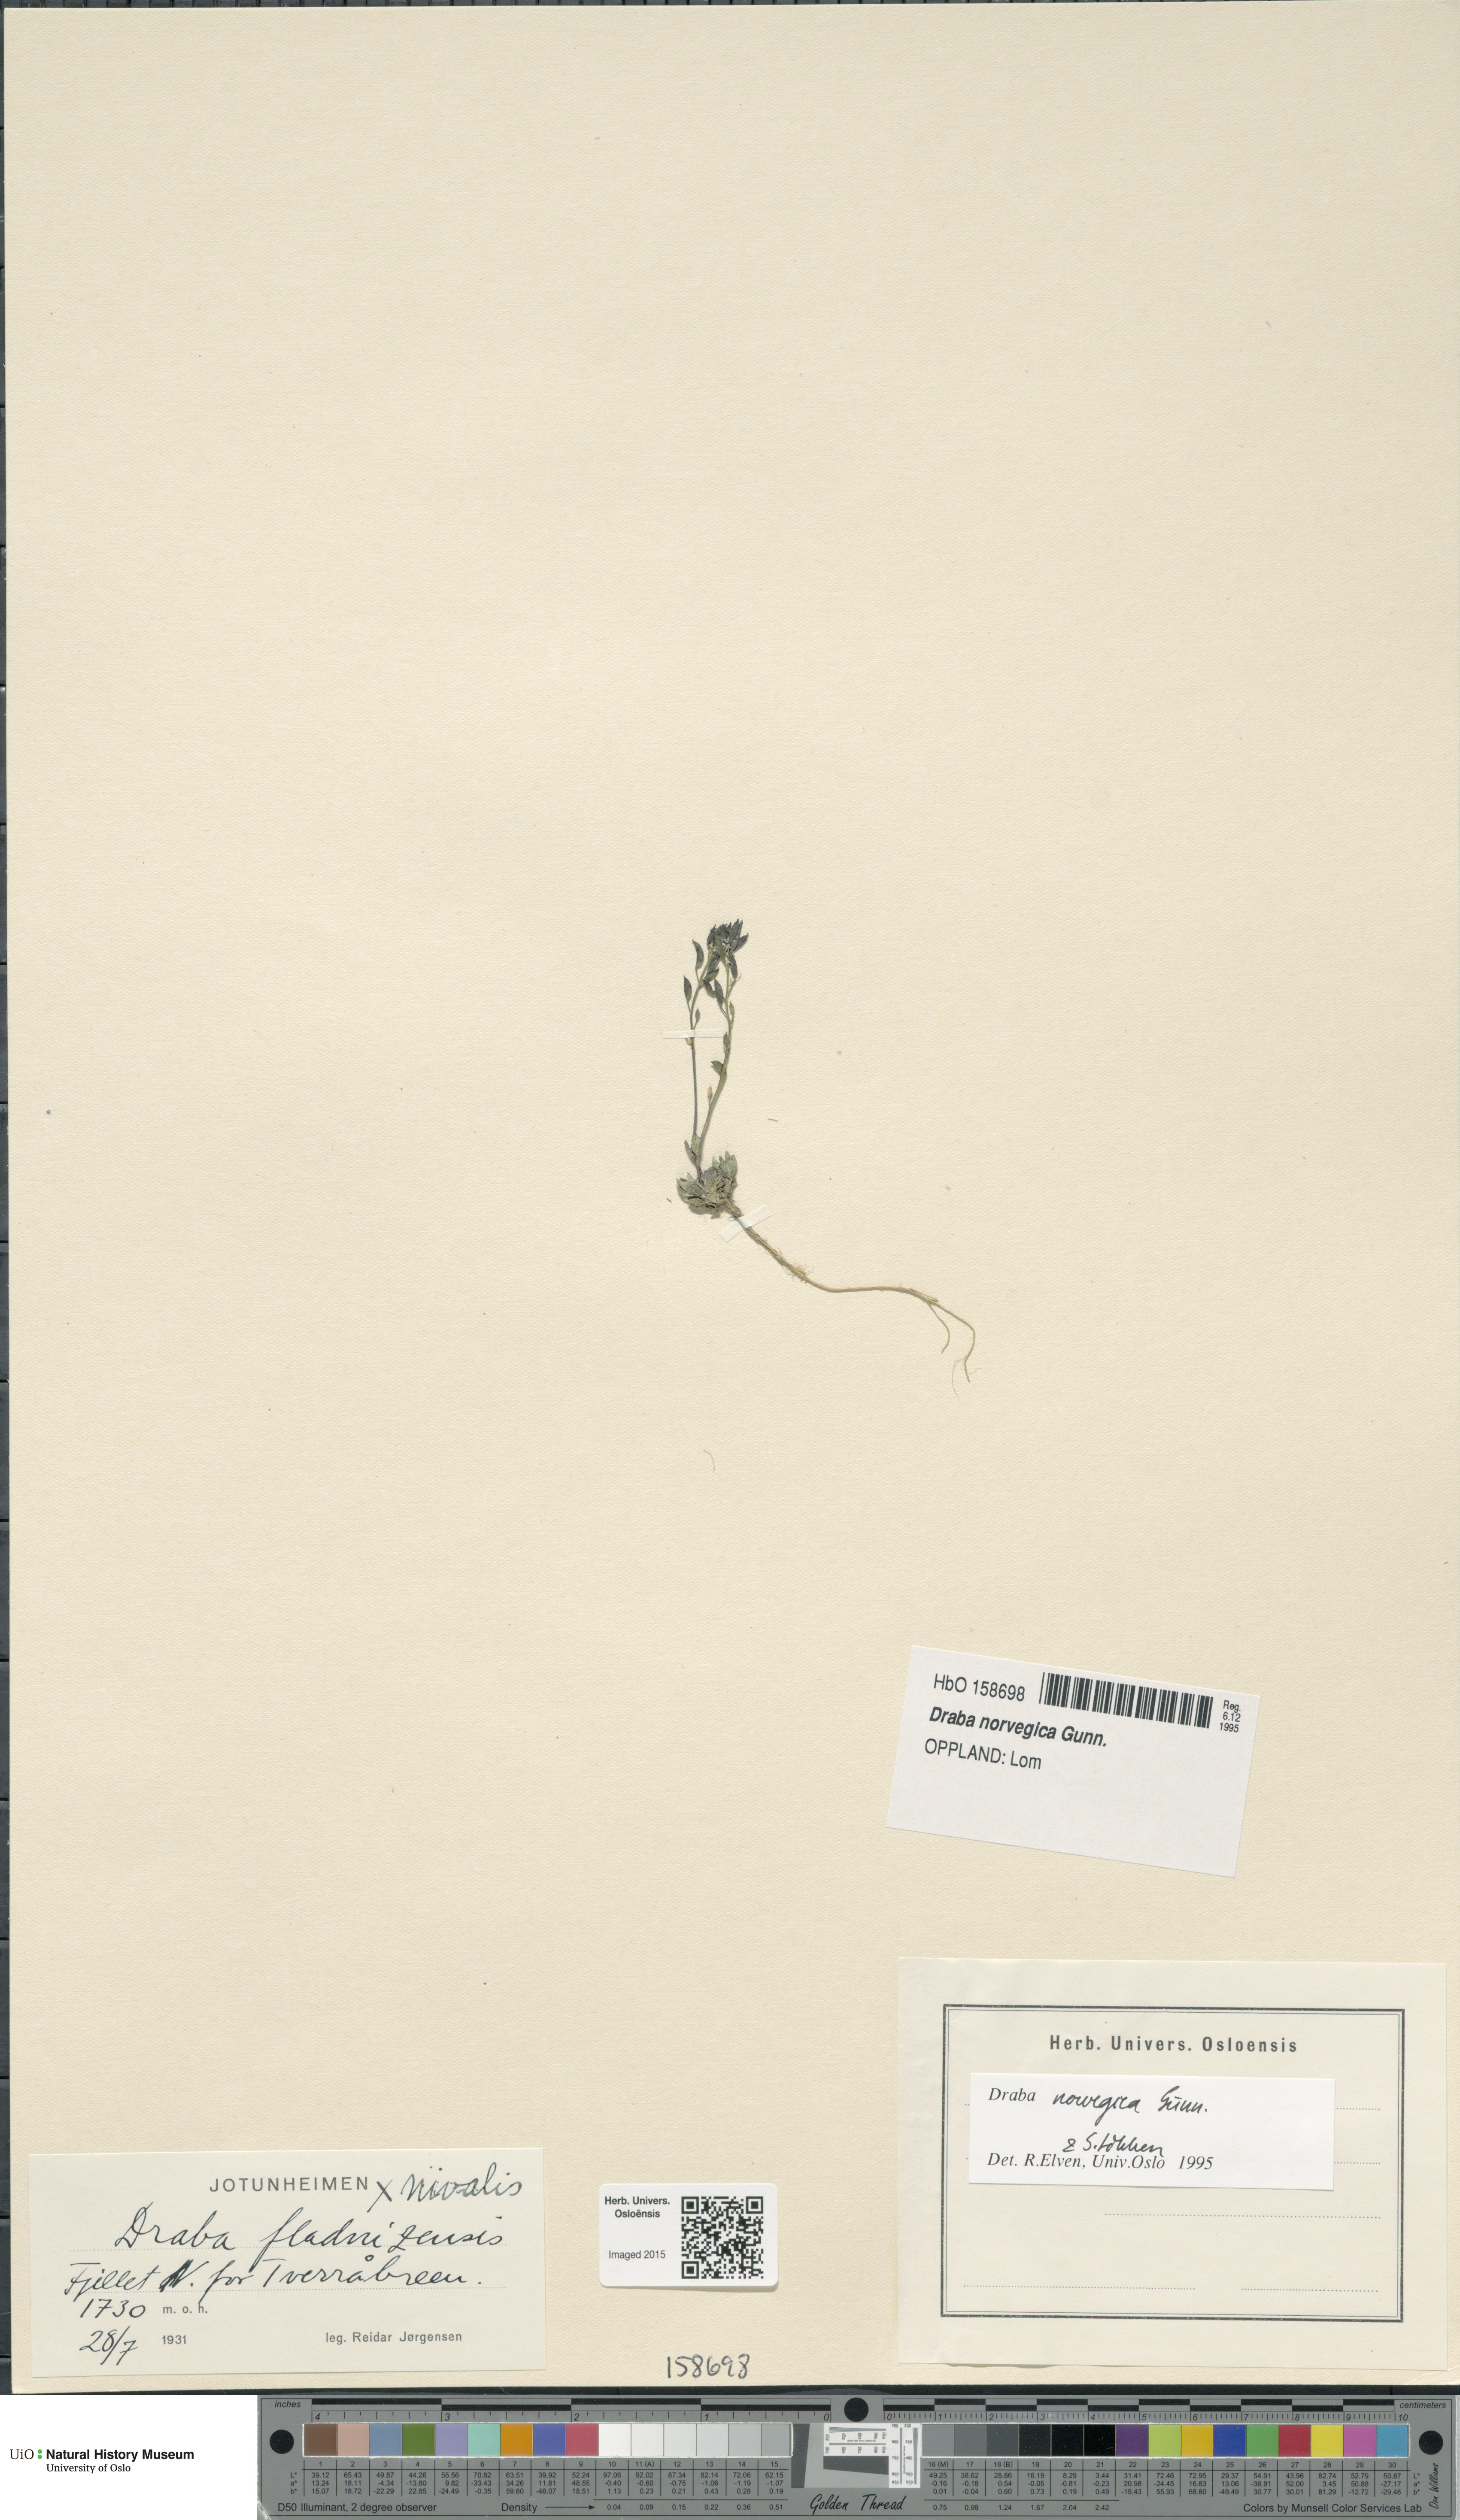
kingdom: Plantae
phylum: Tracheophyta
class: Magnoliopsida
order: Brassicales
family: Brassicaceae
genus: Draba
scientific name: Draba norvegica
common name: Rock whitlowgrass
